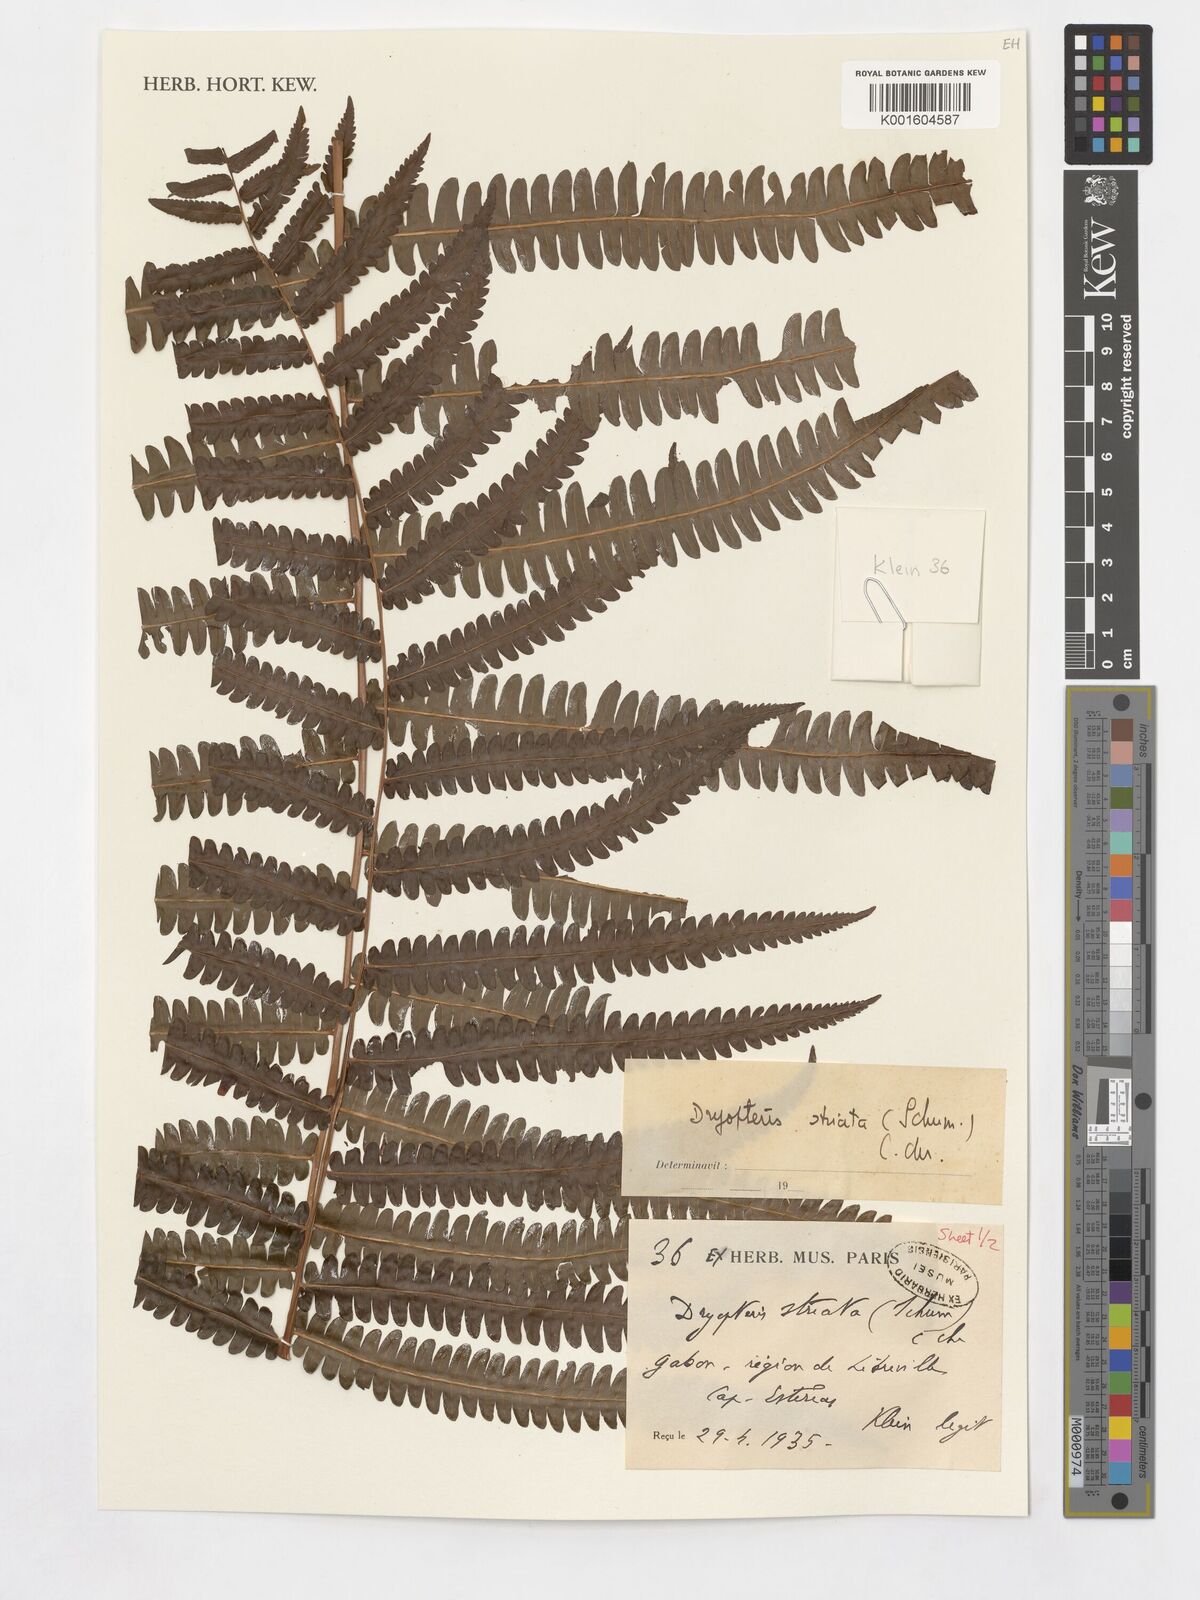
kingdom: Plantae
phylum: Tracheophyta
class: Polypodiopsida
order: Polypodiales
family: Thelypteridaceae
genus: Cyclosorus
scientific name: Cyclosorus striatus
